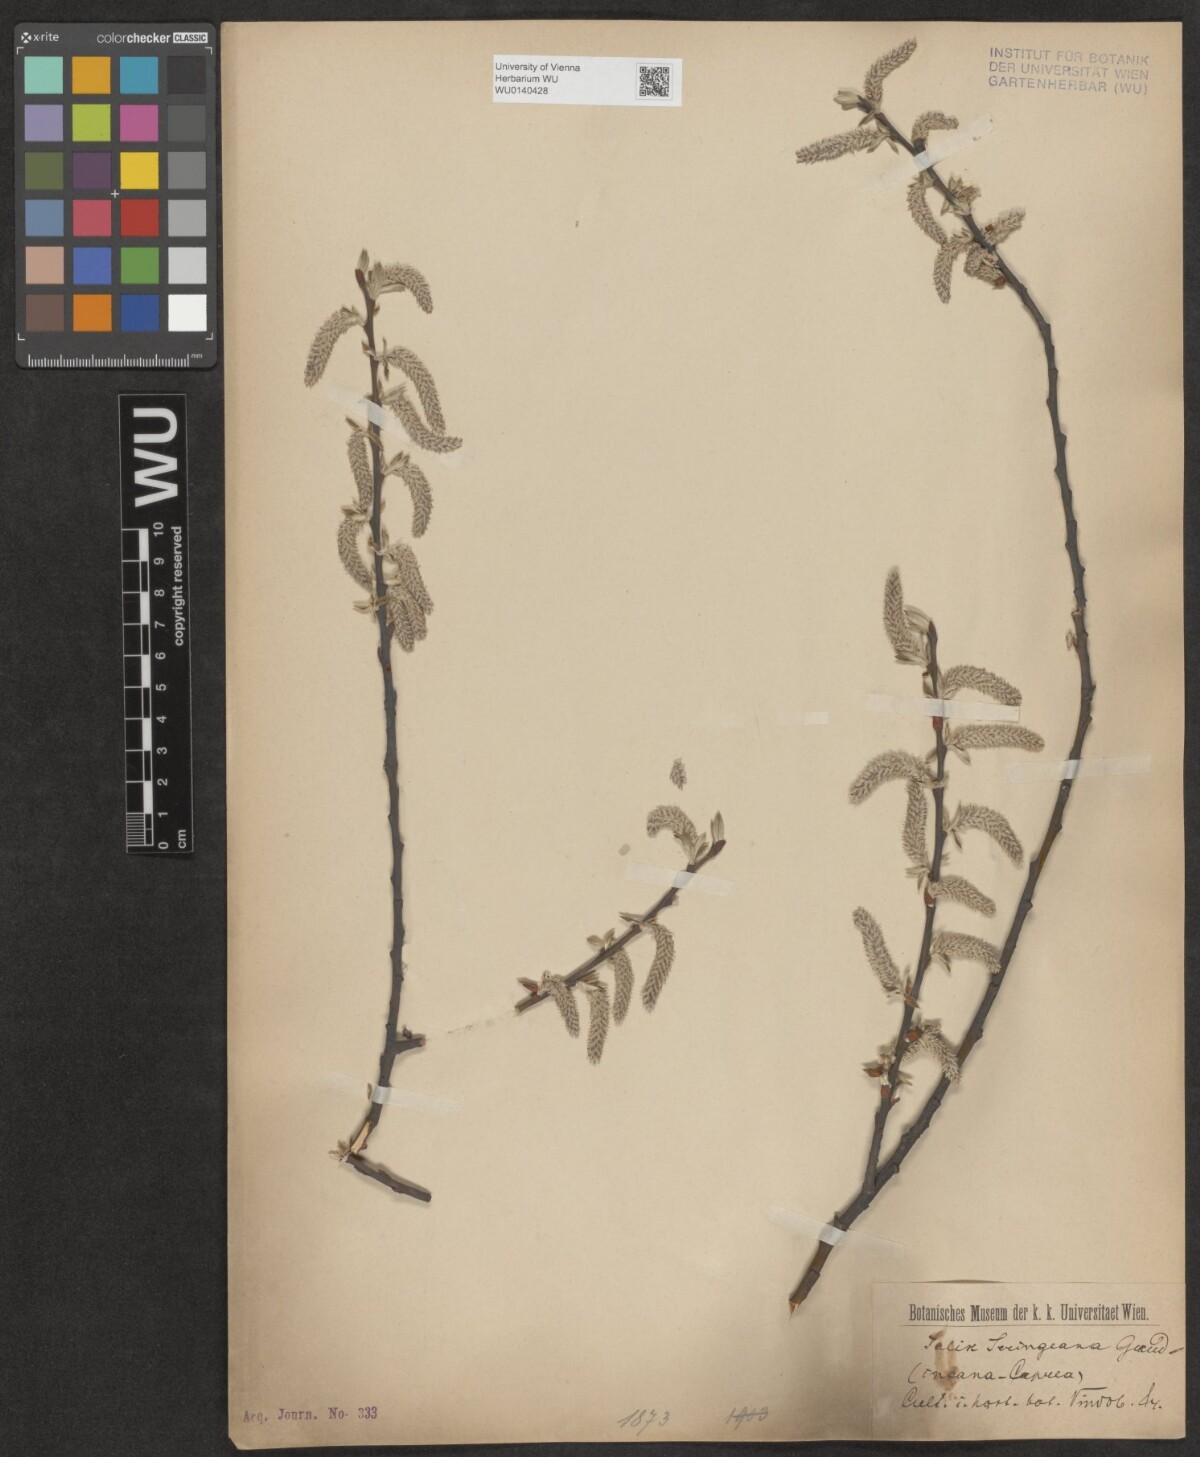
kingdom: Plantae
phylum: Tracheophyta
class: Magnoliopsida
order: Malpighiales
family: Salicaceae
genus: Salix
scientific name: Salix seringeana
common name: Seringe willow
